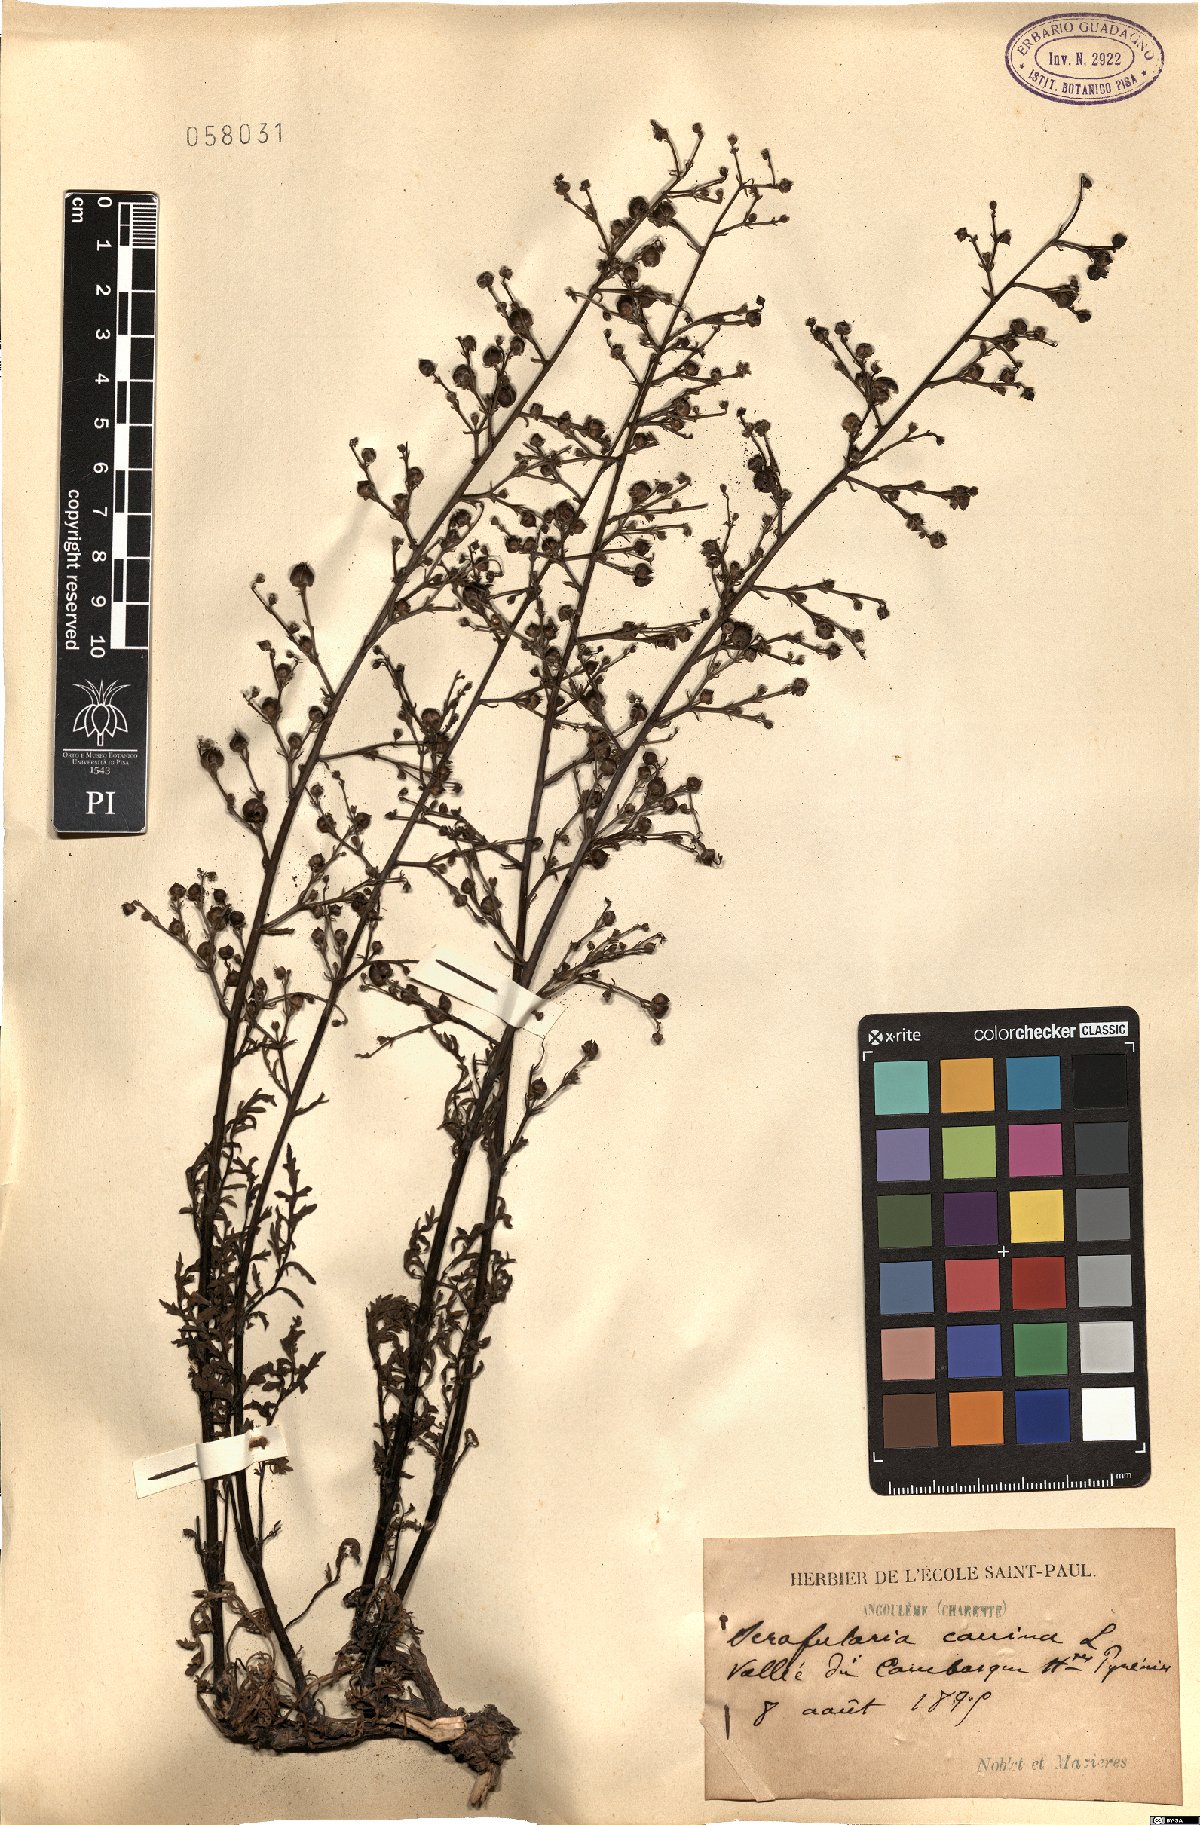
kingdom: Plantae
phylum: Tracheophyta
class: Magnoliopsida
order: Lamiales
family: Scrophulariaceae
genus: Scrophularia
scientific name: Scrophularia canina
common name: French figwort
